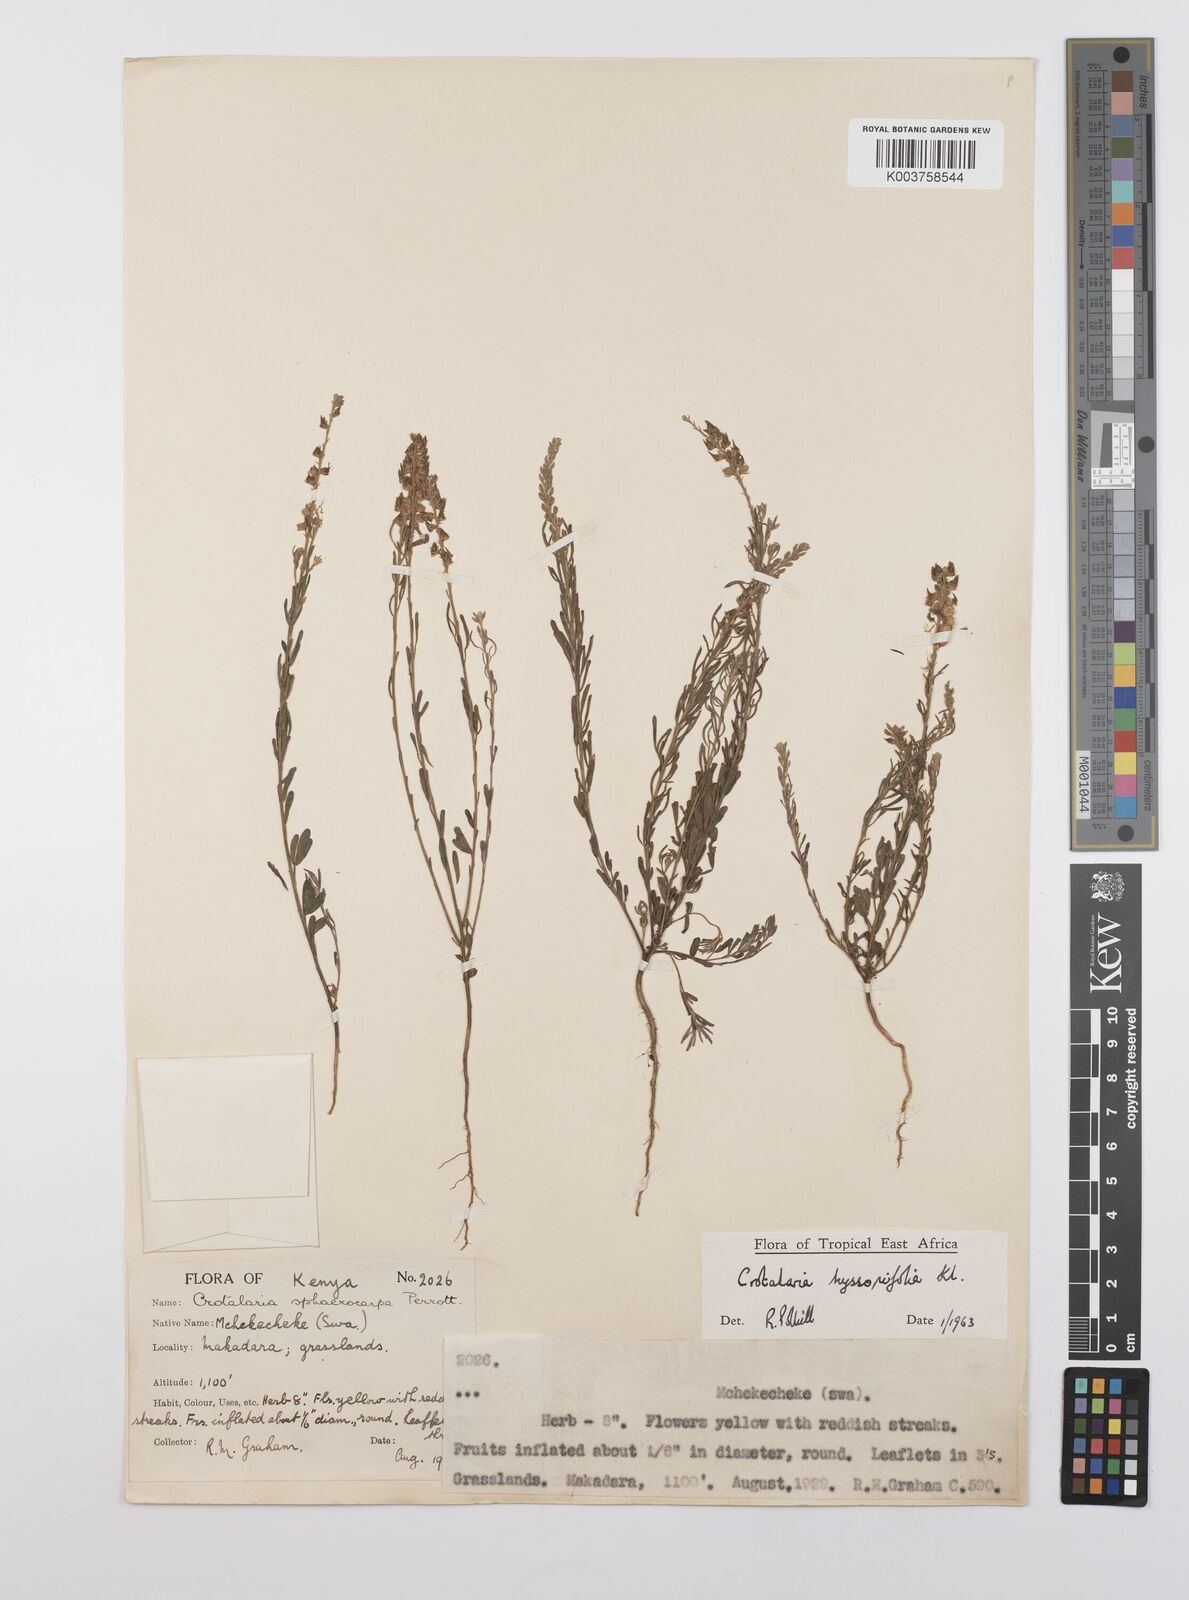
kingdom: Plantae
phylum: Tracheophyta
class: Magnoliopsida
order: Fabales
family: Fabaceae
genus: Crotalaria
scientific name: Crotalaria hyssopifolia
